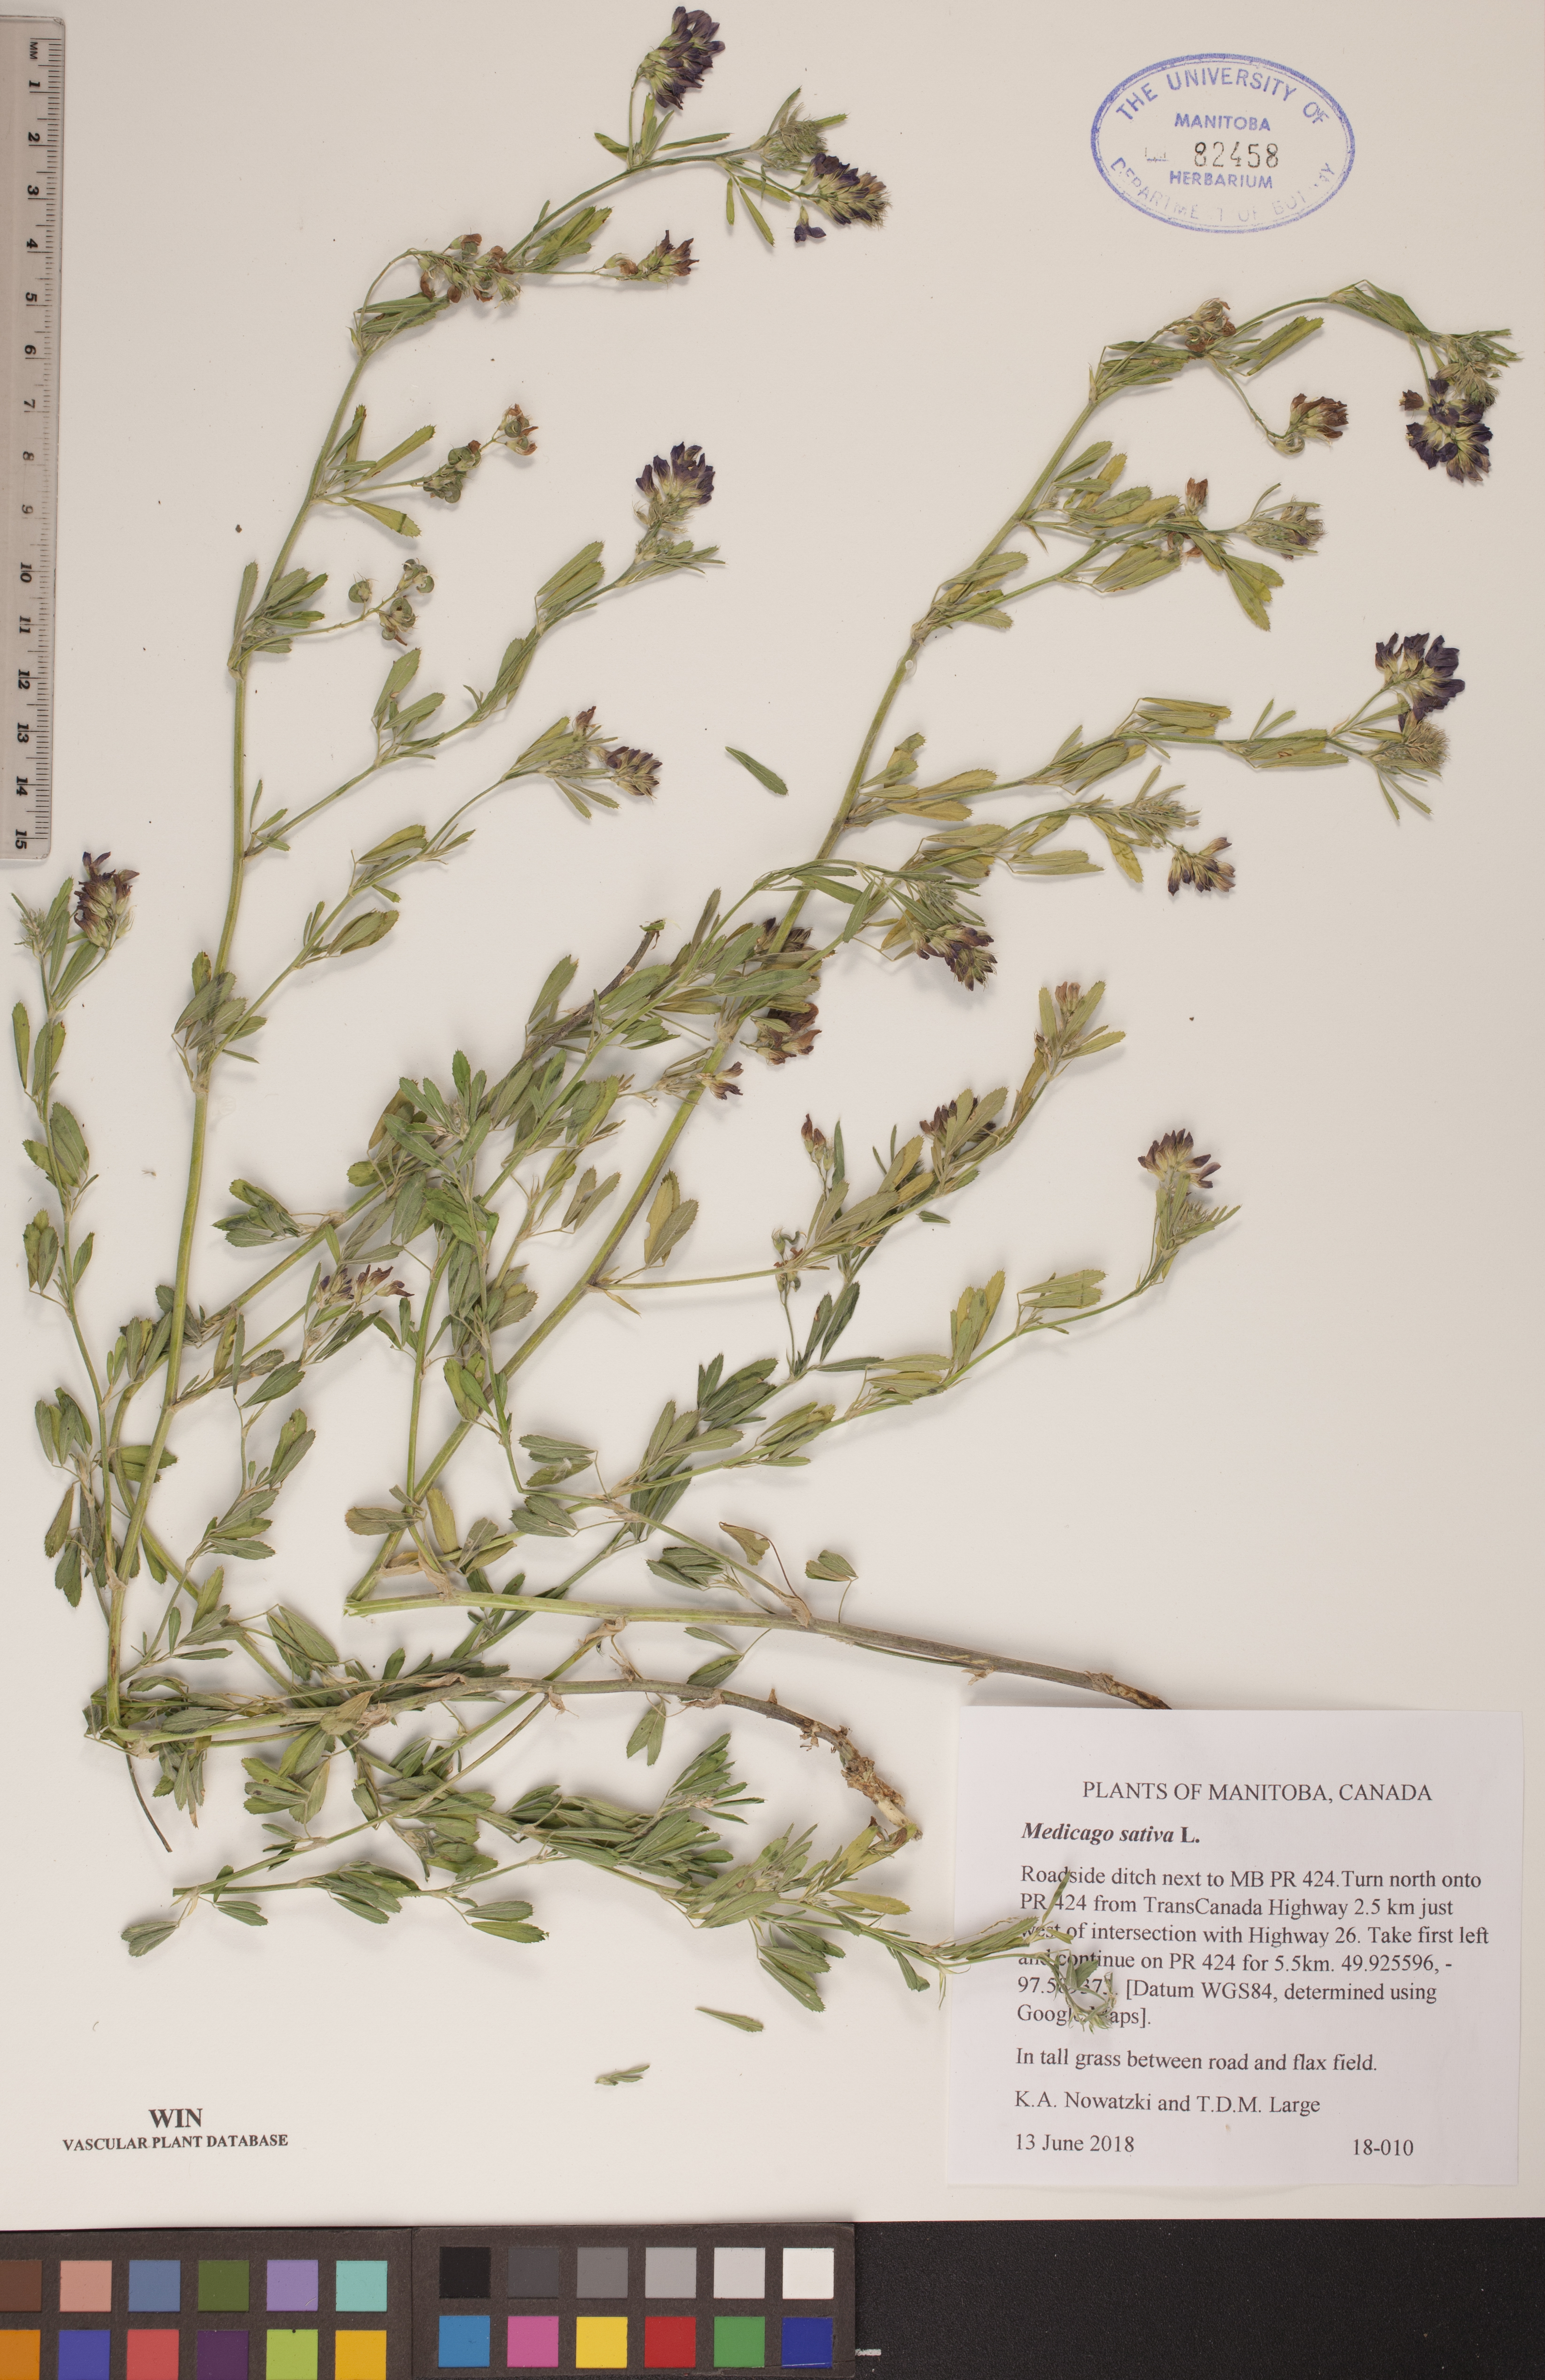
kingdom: Plantae
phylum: Tracheophyta
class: Magnoliopsida
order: Fabales
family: Fabaceae
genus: Medicago
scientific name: Medicago sativa
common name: Alfalfa
